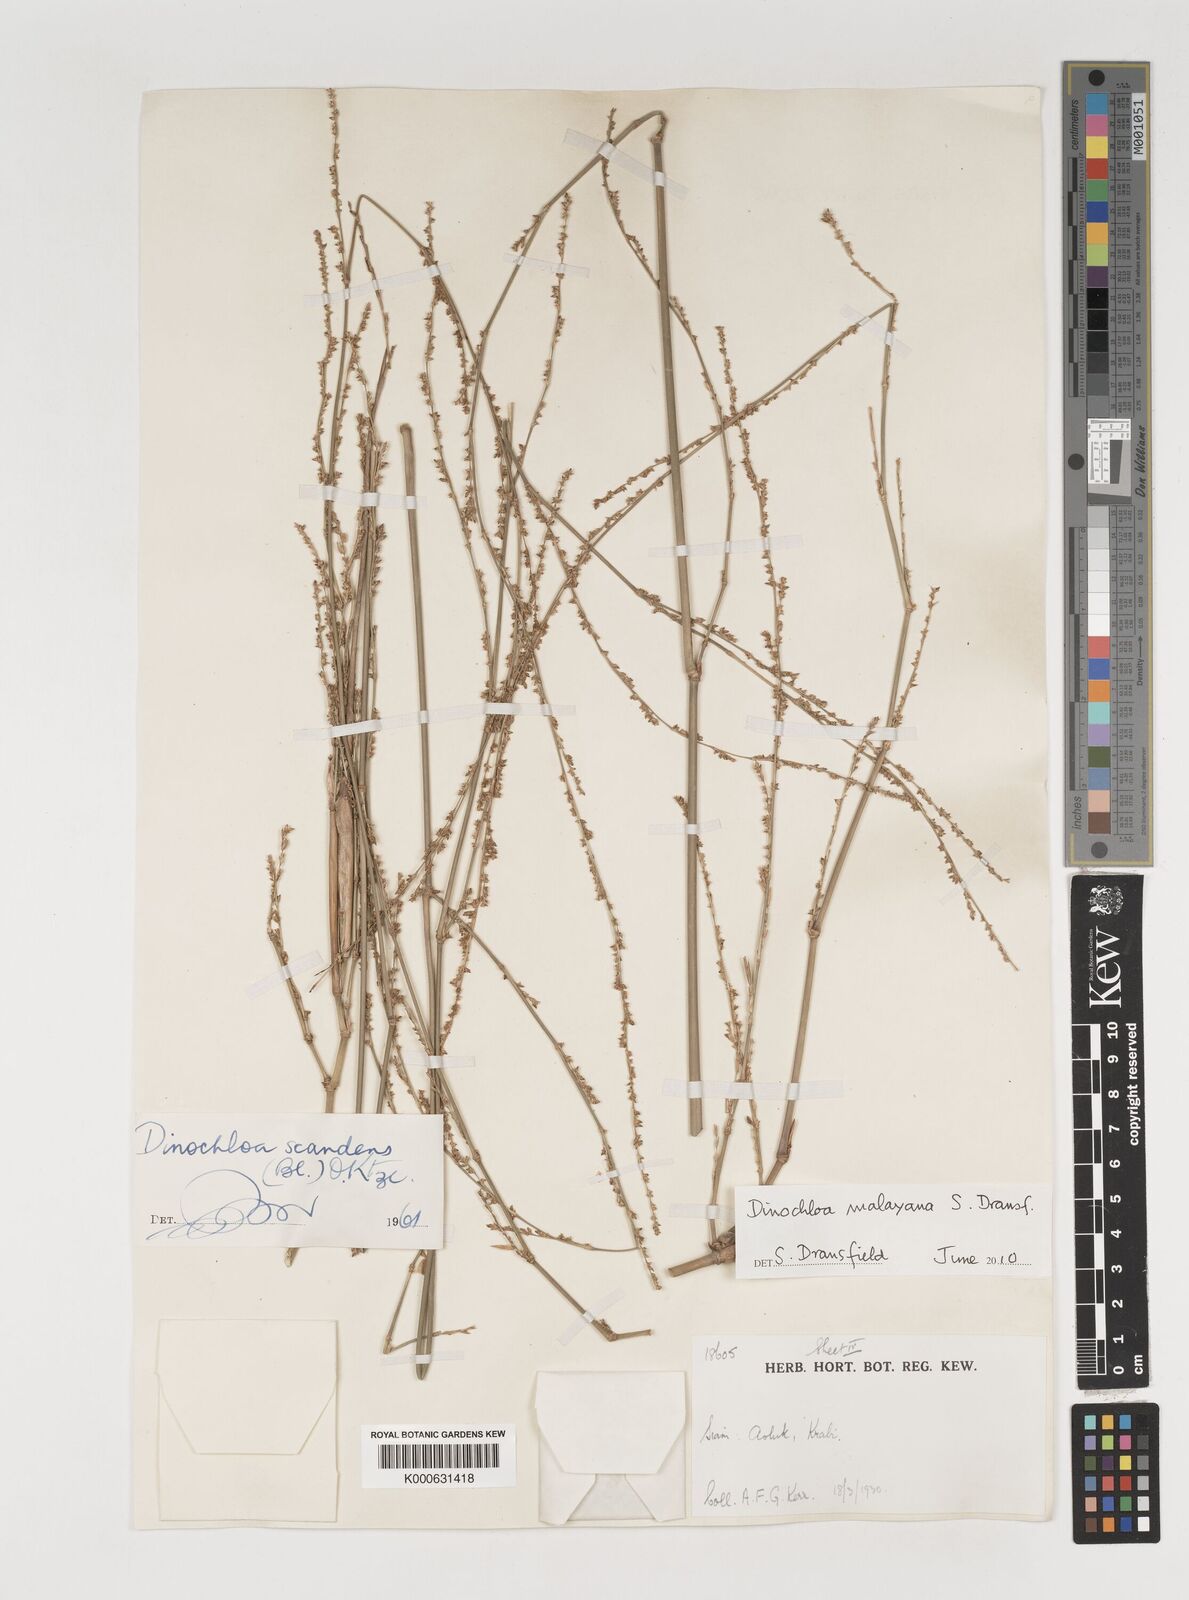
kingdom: Plantae
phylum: Tracheophyta
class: Liliopsida
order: Poales
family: Poaceae
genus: Dinochloa
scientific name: Dinochloa andamanica
